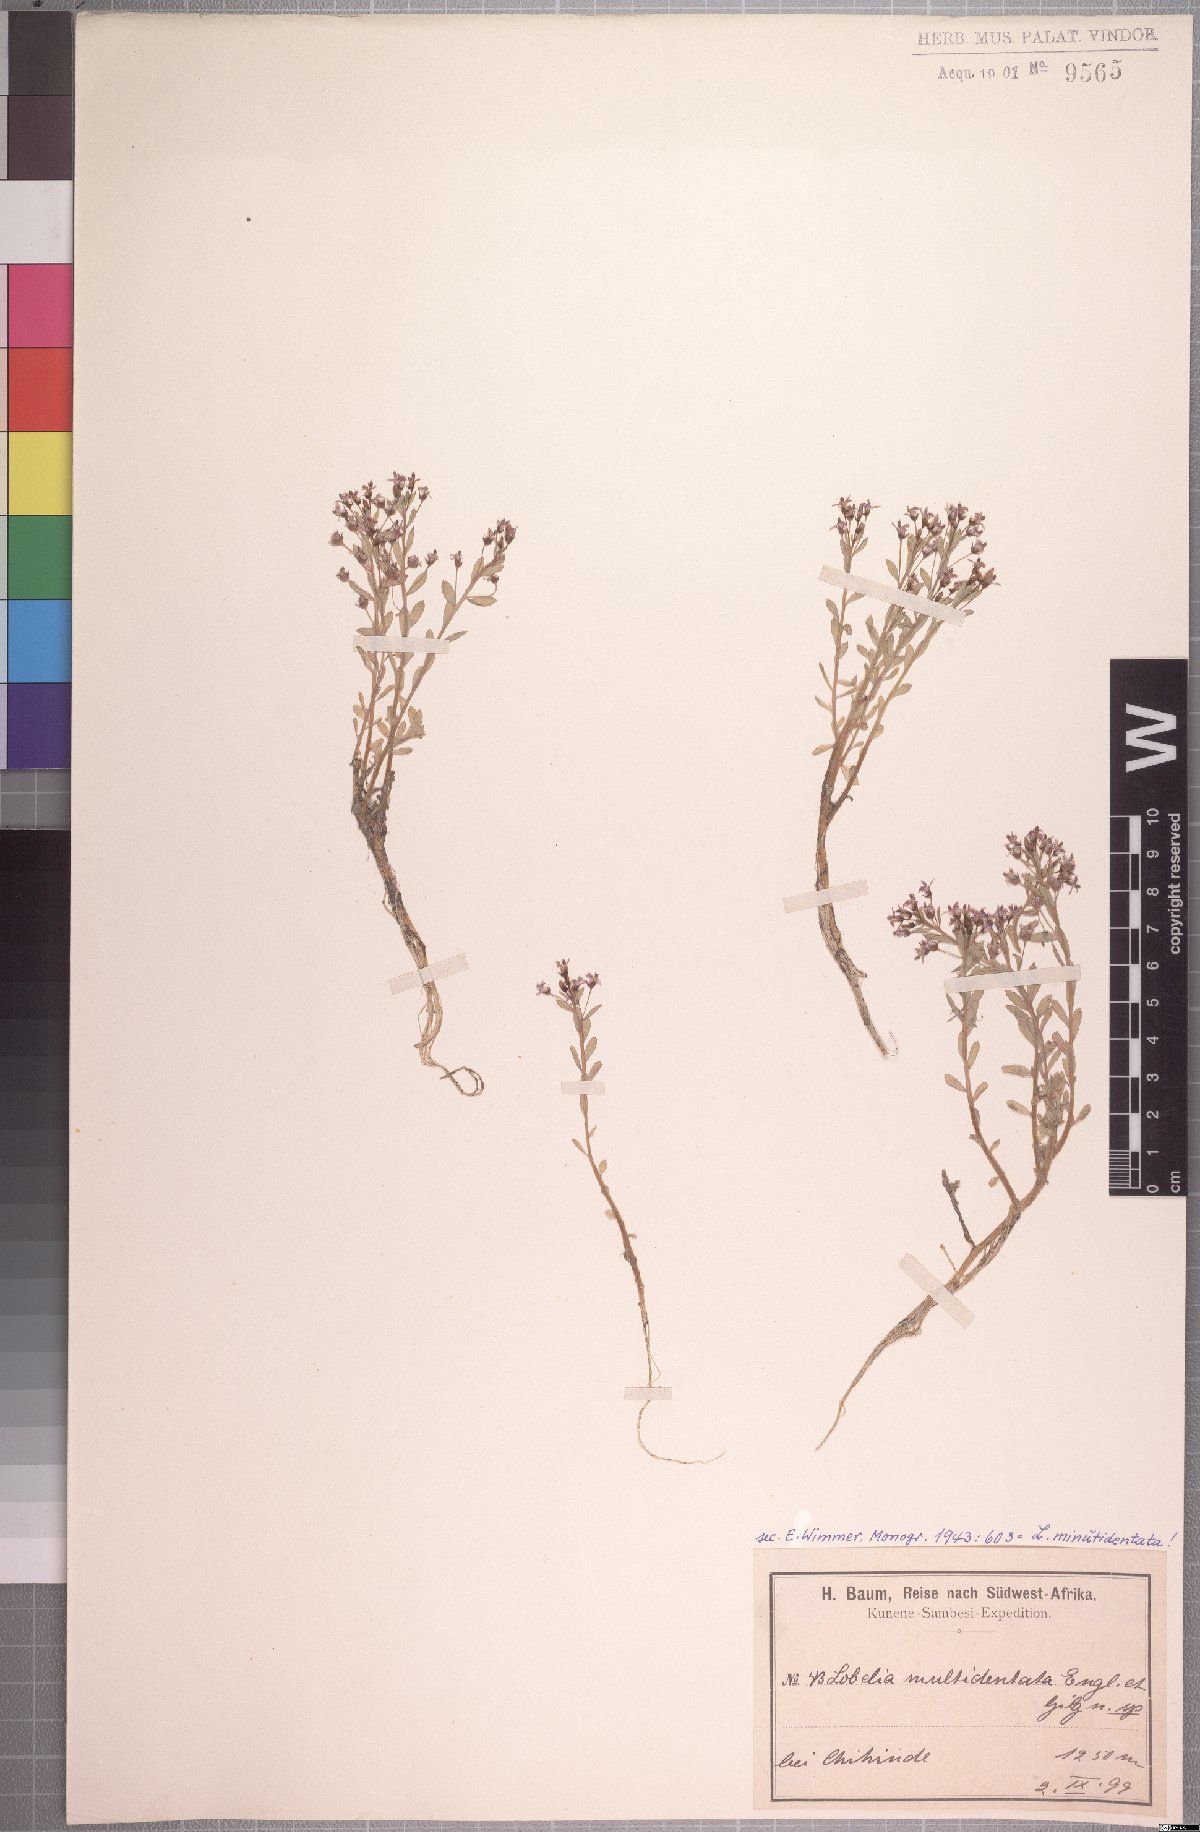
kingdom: Plantae
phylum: Tracheophyta
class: Magnoliopsida
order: Asterales
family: Campanulaceae
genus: Lobelia
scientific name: Lobelia sonderiana
